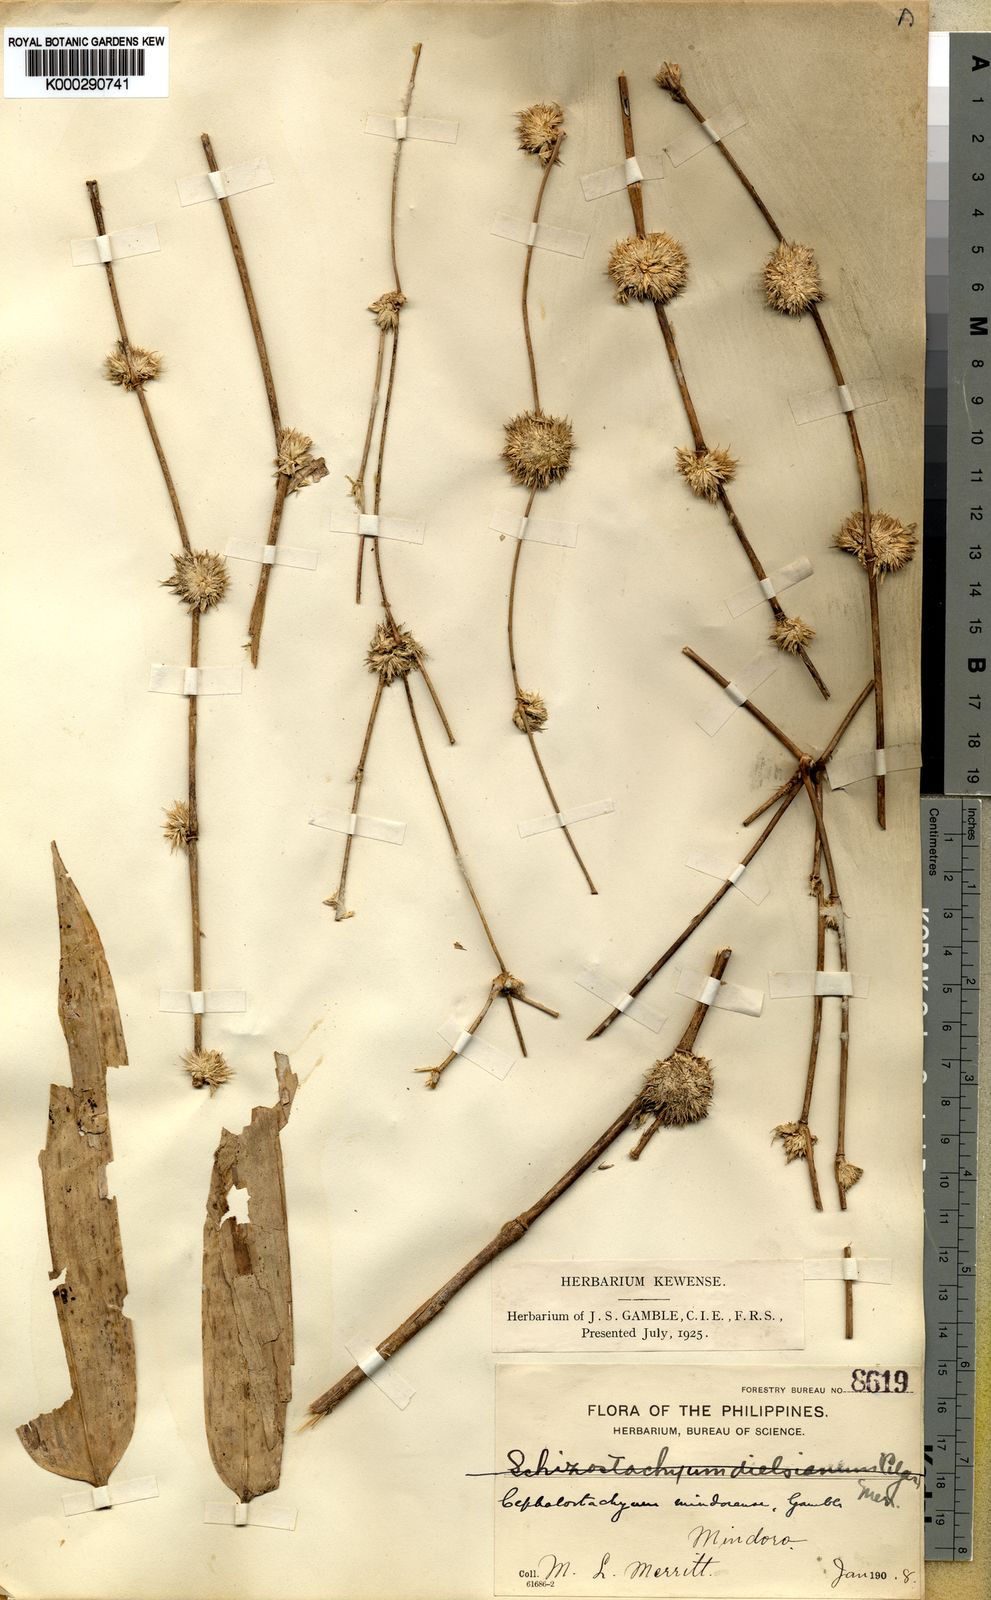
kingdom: Plantae
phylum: Tracheophyta
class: Liliopsida
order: Poales
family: Poaceae
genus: Cephalostachyum
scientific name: Cephalostachyum mindorense
